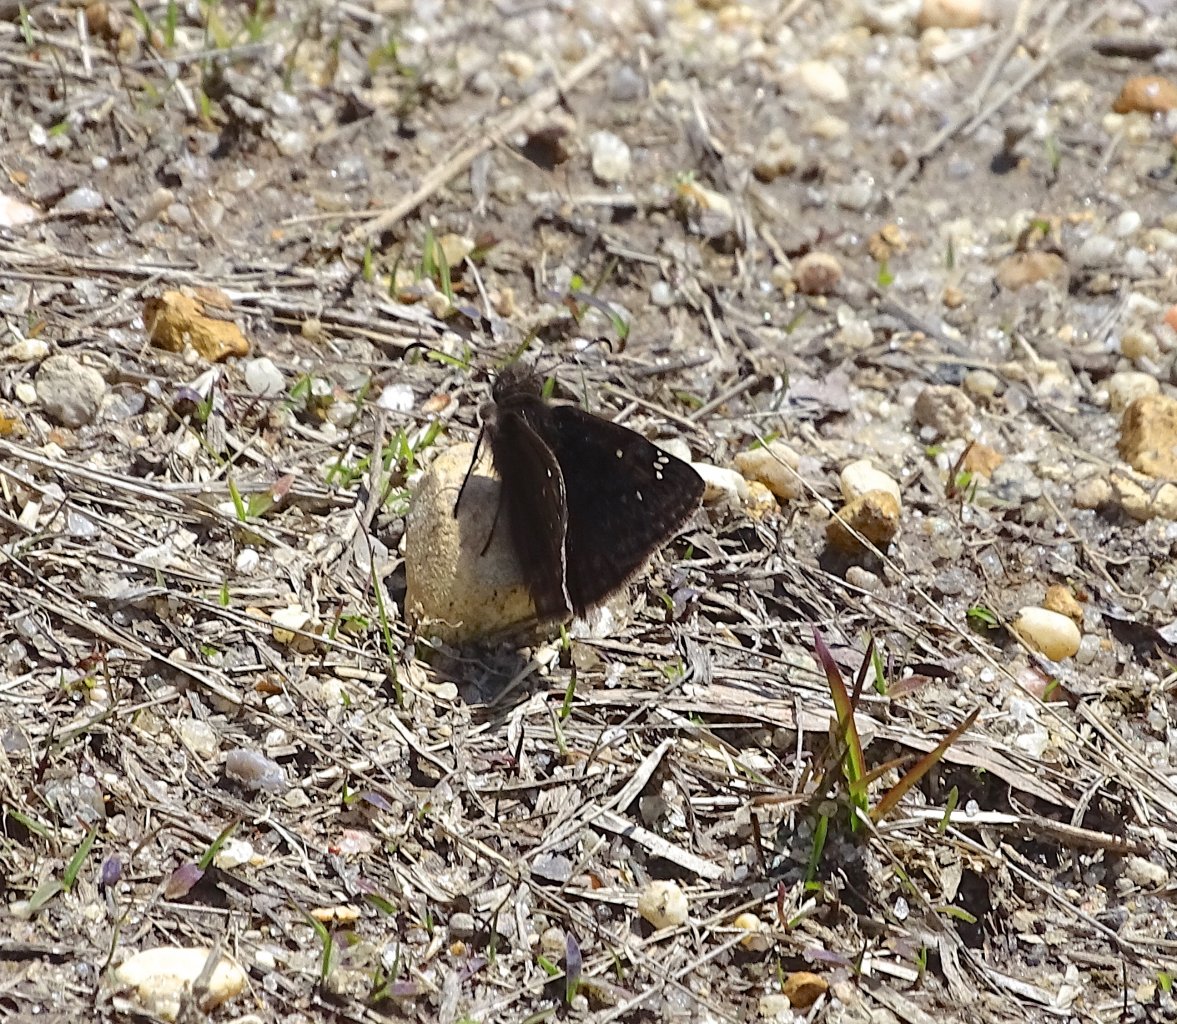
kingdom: Animalia
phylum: Arthropoda
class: Insecta
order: Lepidoptera
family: Hesperiidae
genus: Gesta
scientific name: Gesta
